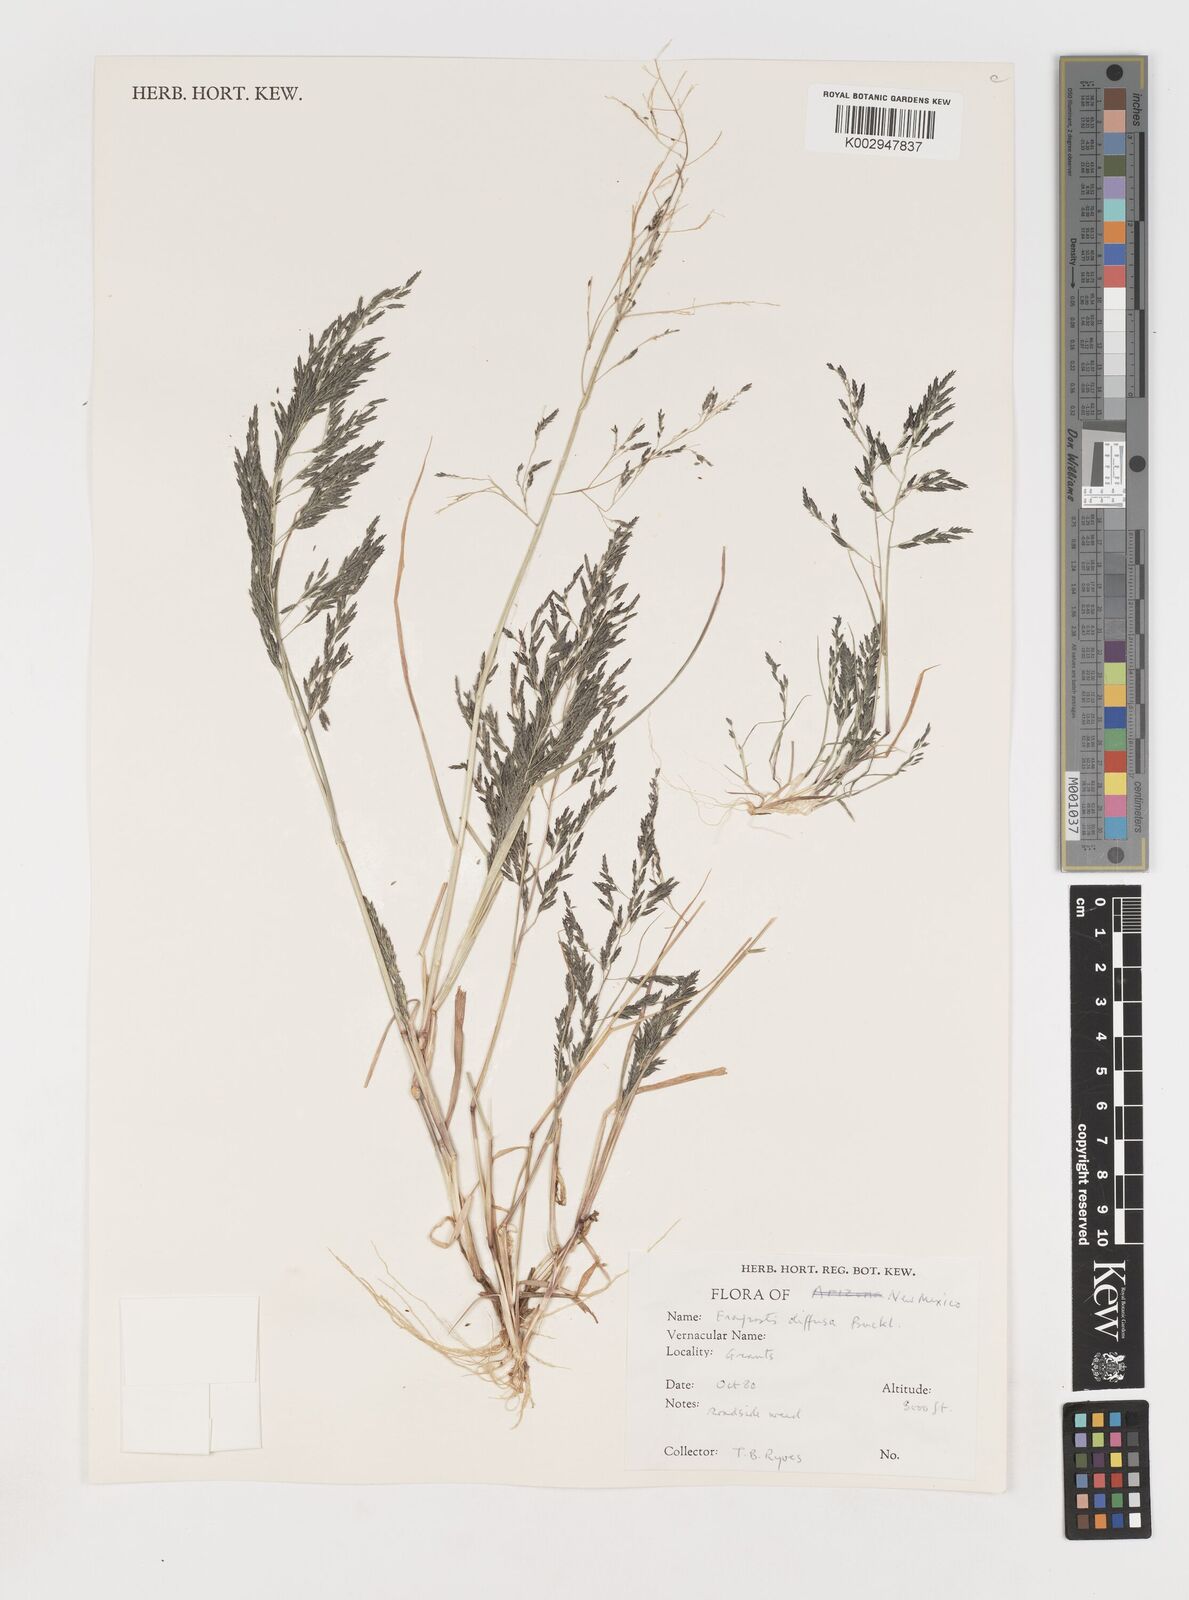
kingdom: Plantae
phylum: Tracheophyta
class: Liliopsida
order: Poales
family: Poaceae
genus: Eragrostis
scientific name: Eragrostis pectinacea
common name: Tufted lovegrass
